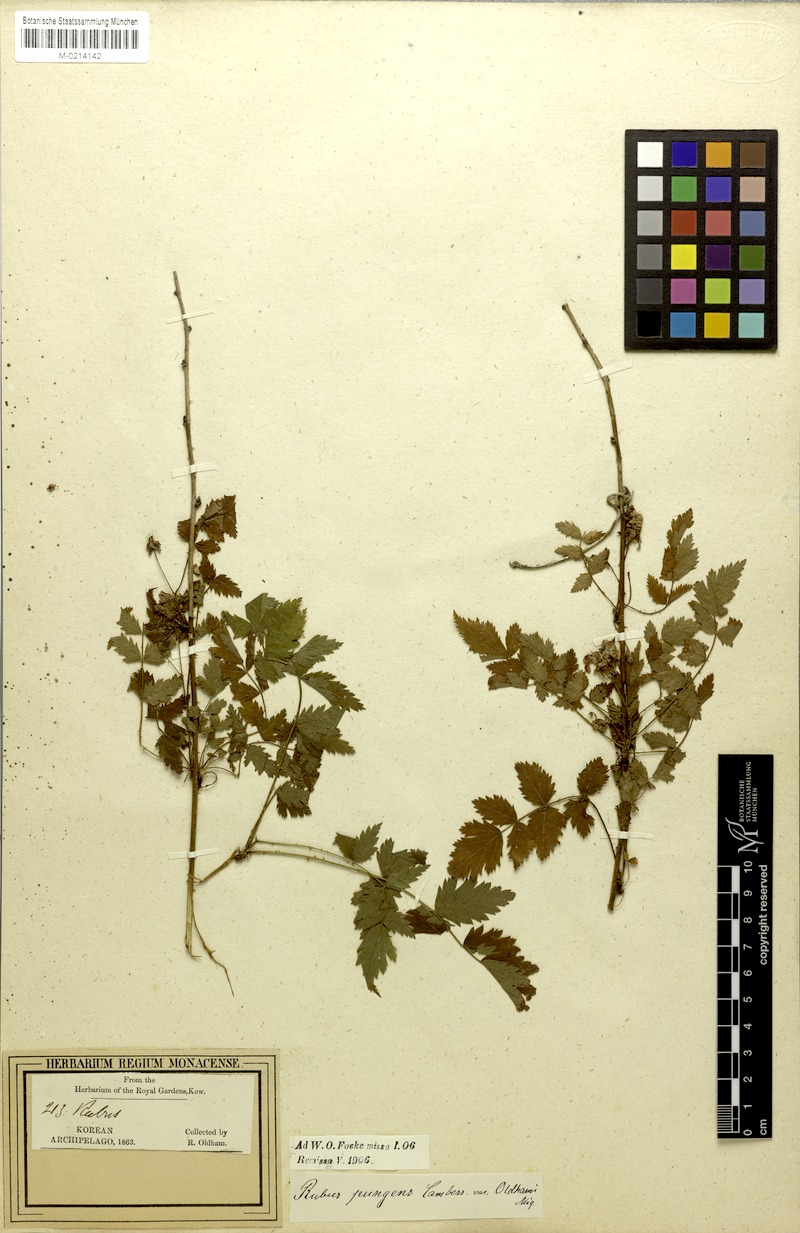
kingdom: Plantae
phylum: Tracheophyta
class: Magnoliopsida
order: Rosales
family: Rosaceae
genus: Rubus
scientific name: Rubus pungens
